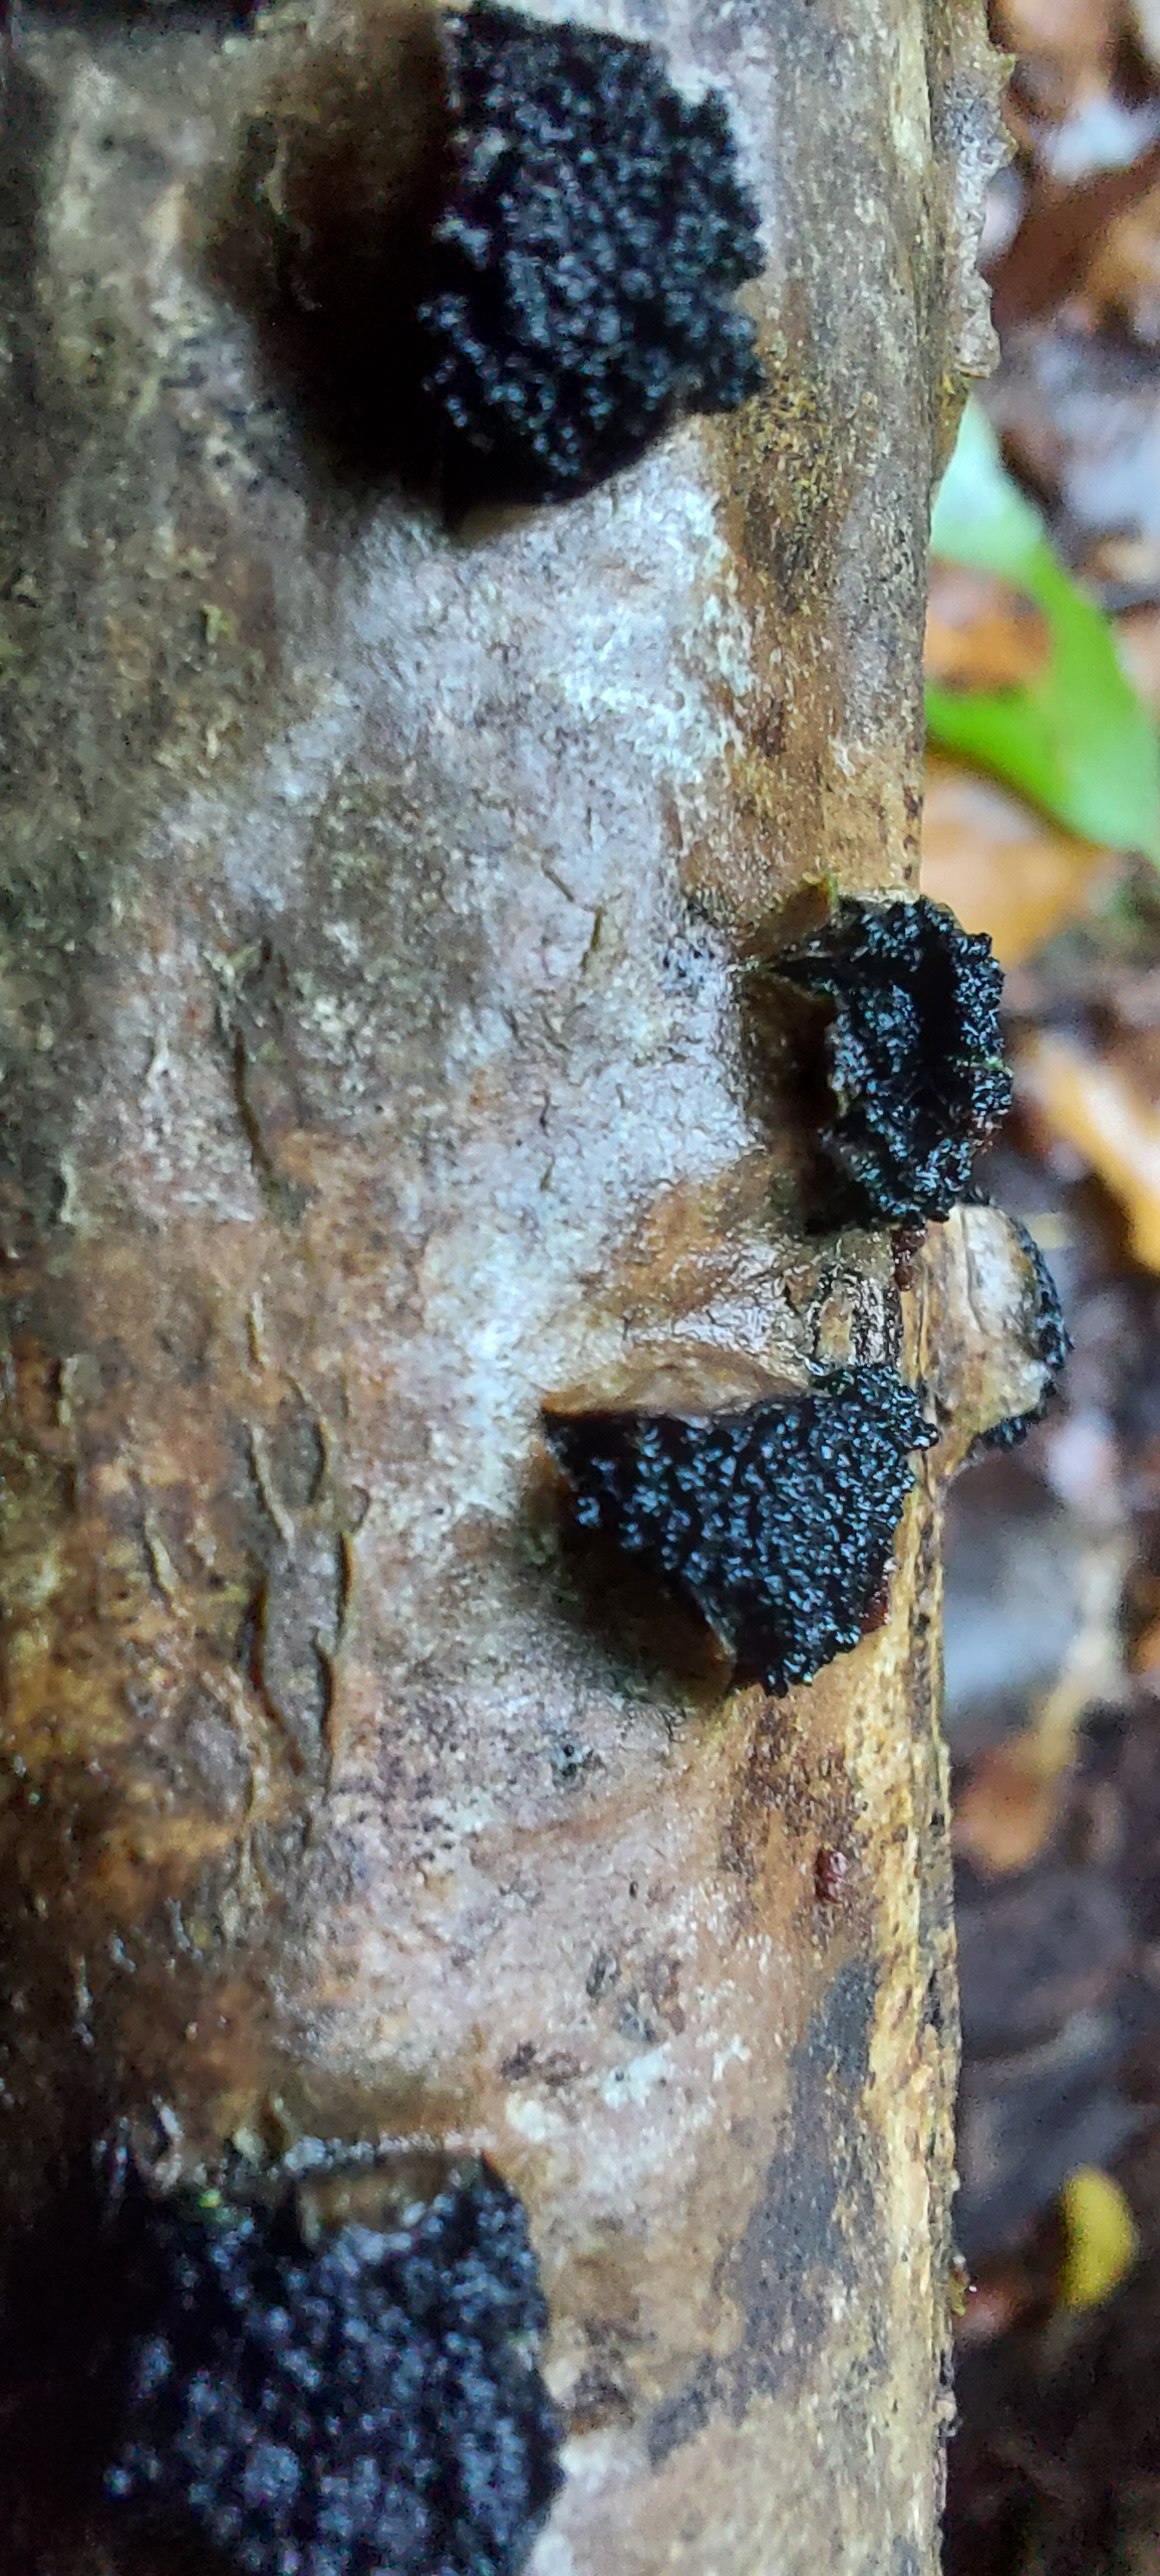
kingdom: Fungi
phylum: Ascomycota
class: Sordariomycetes
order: Xylariales
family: Diatrypaceae
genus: Eutypella
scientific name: Eutypella sorbi
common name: rønne-kulskorpe
